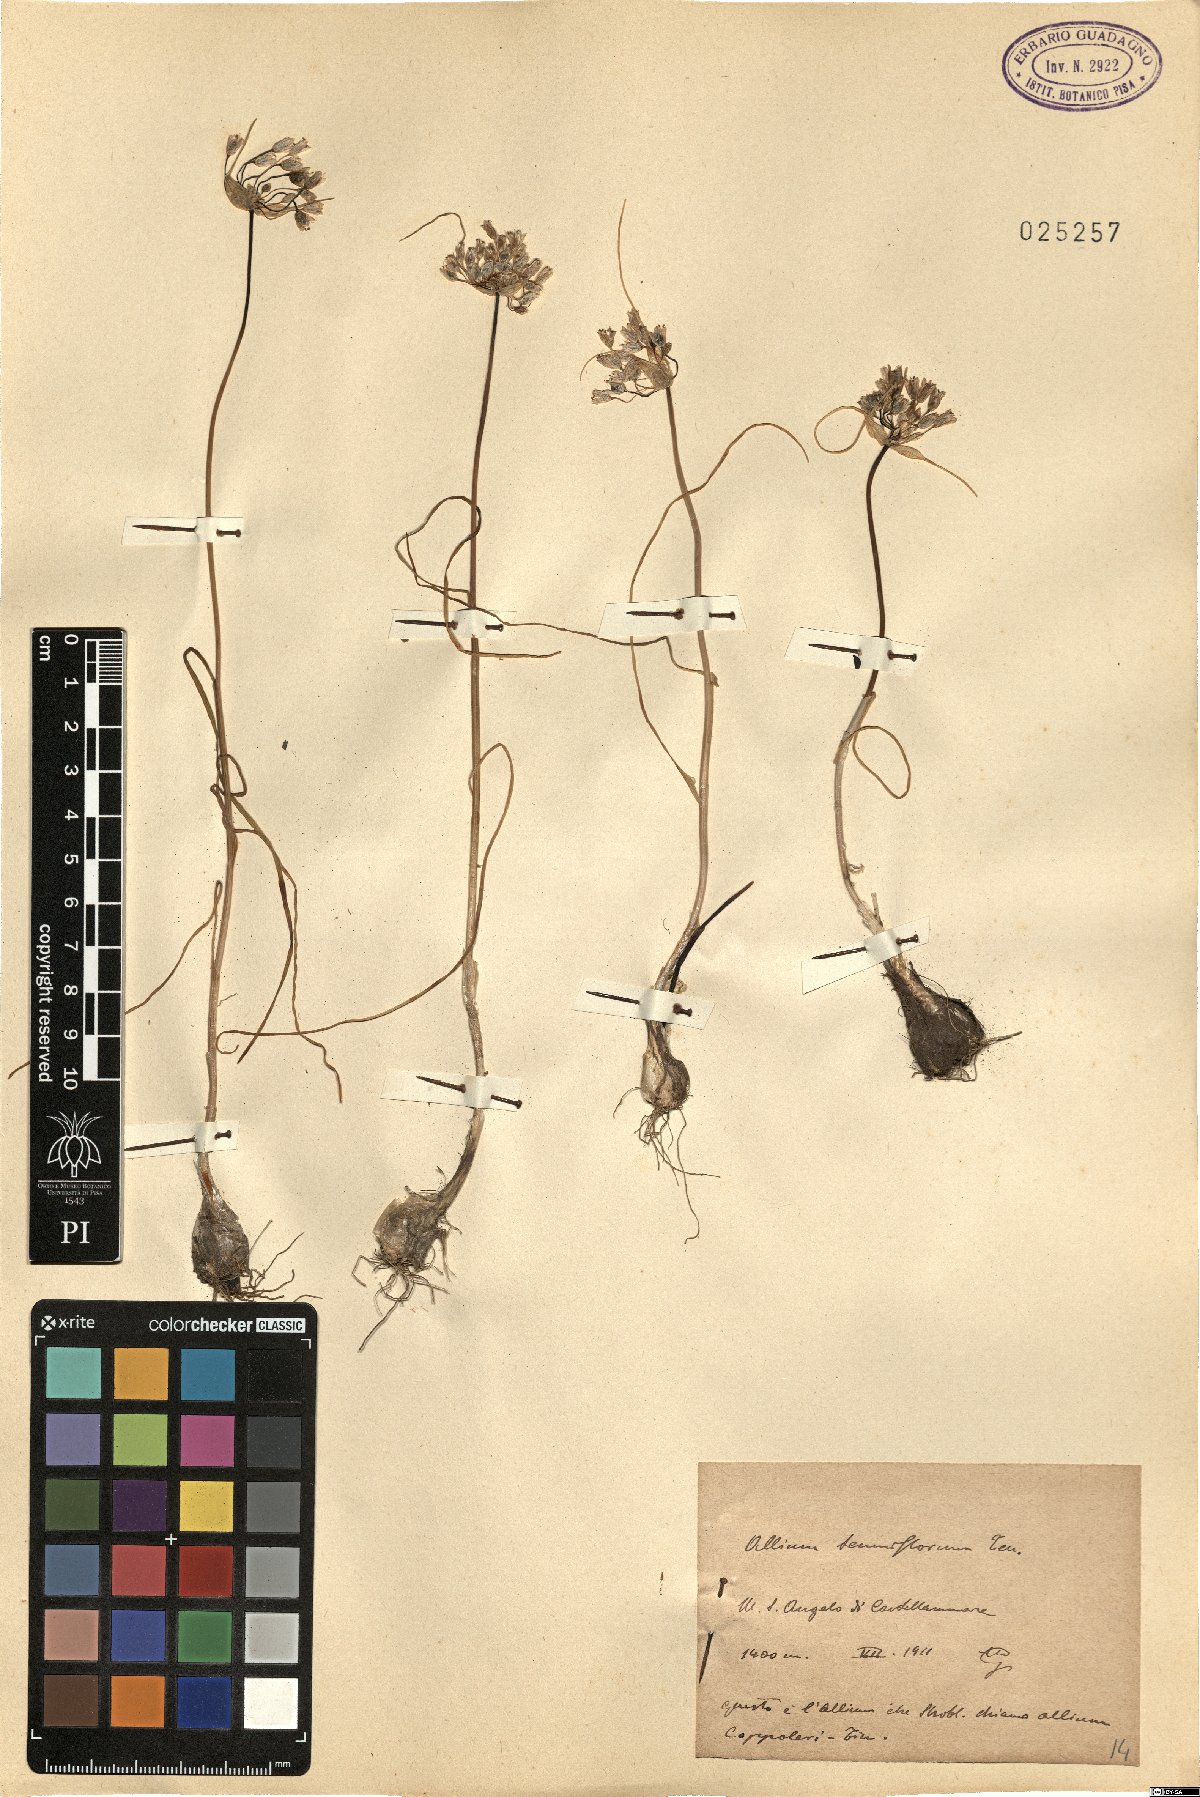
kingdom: Plantae
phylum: Tracheophyta
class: Liliopsida
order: Asparagales
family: Amaryllidaceae
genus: Allium
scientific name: Allium tenuiflorum
